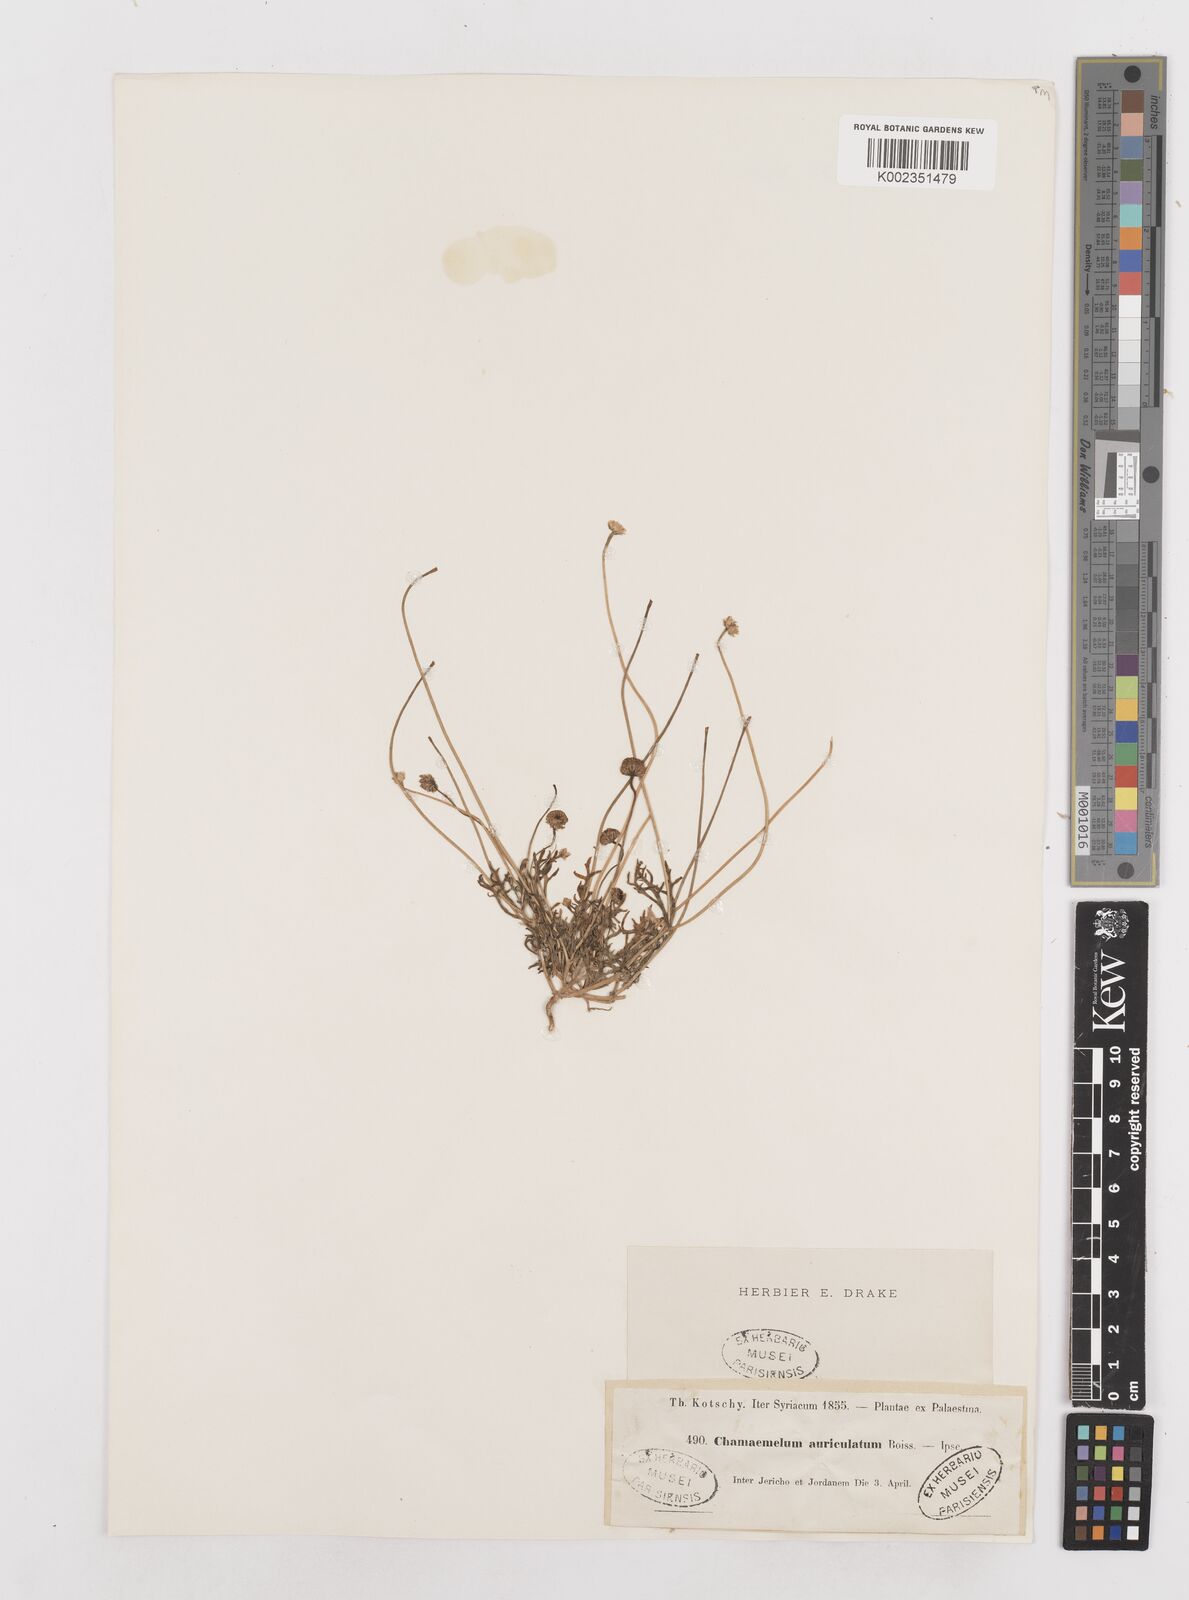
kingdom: Plantae
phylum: Tracheophyta
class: Magnoliopsida
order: Asterales
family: Asteraceae
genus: Anthemis
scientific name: Anthemis auriculata
